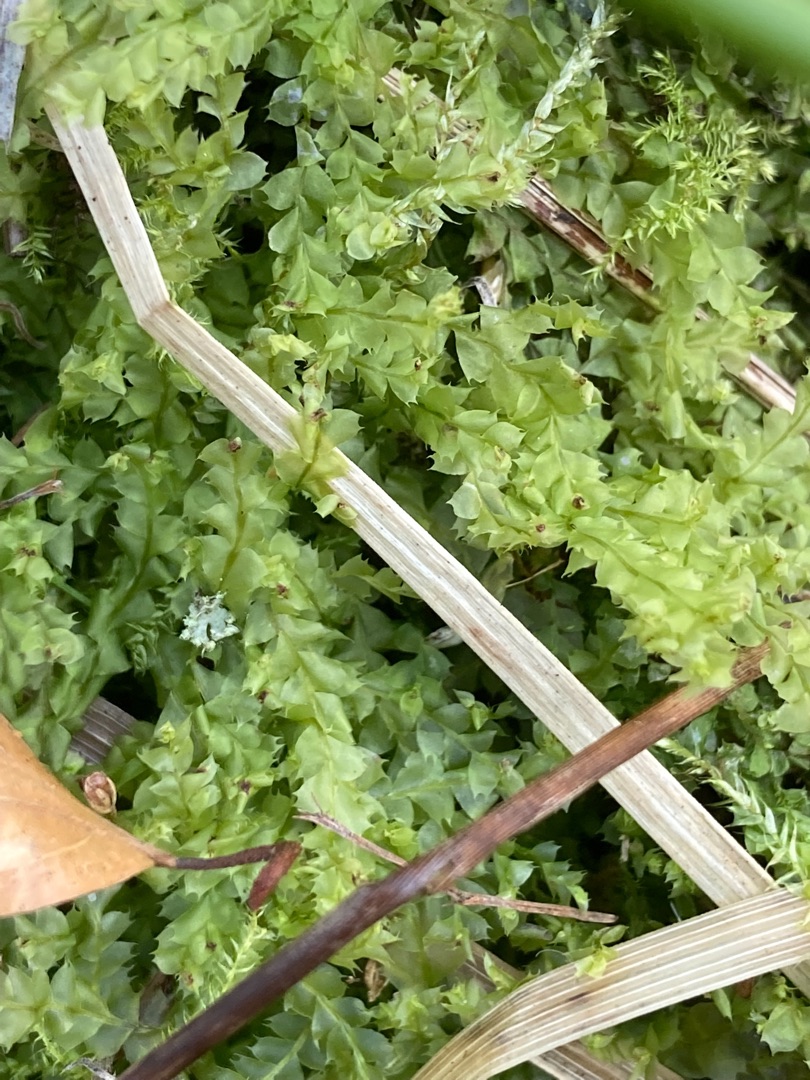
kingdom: Plantae
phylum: Marchantiophyta
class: Jungermanniopsida
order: Jungermanniales
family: Lophocoleaceae
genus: Lophocolea
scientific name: Lophocolea bidentata
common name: Sylspidset kamsvøb
